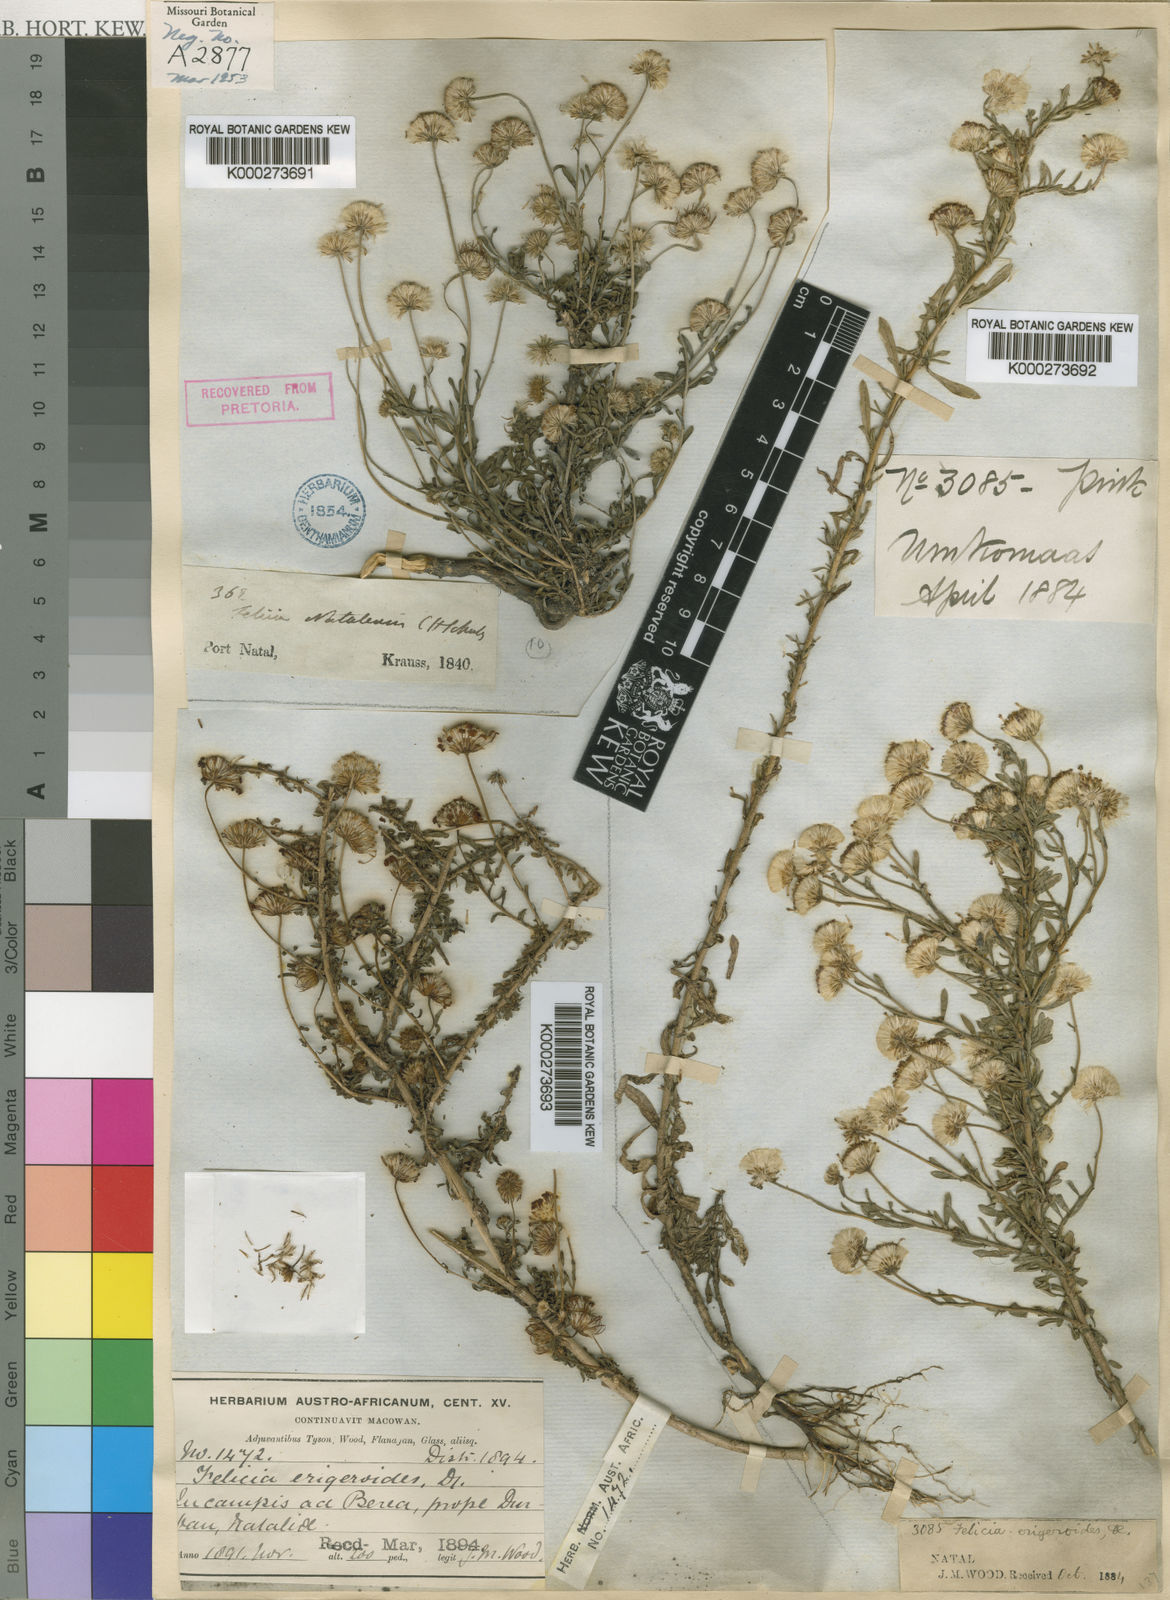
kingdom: Plantae
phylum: Tracheophyta
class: Magnoliopsida
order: Asterales
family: Asteraceae
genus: Felicia
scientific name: Felicia erigeroides
